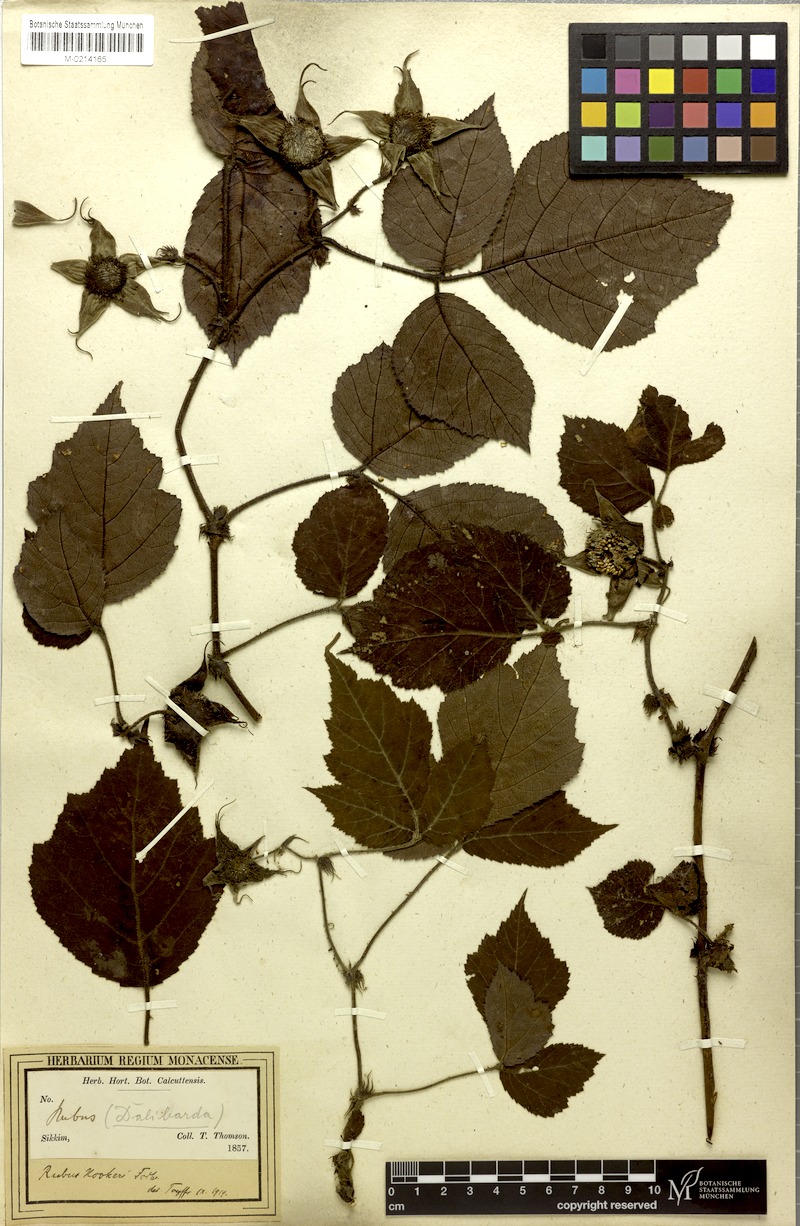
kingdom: Plantae
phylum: Tracheophyta
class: Magnoliopsida
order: Rosales
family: Rosaceae
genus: Rubus
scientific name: Rubus wardii
